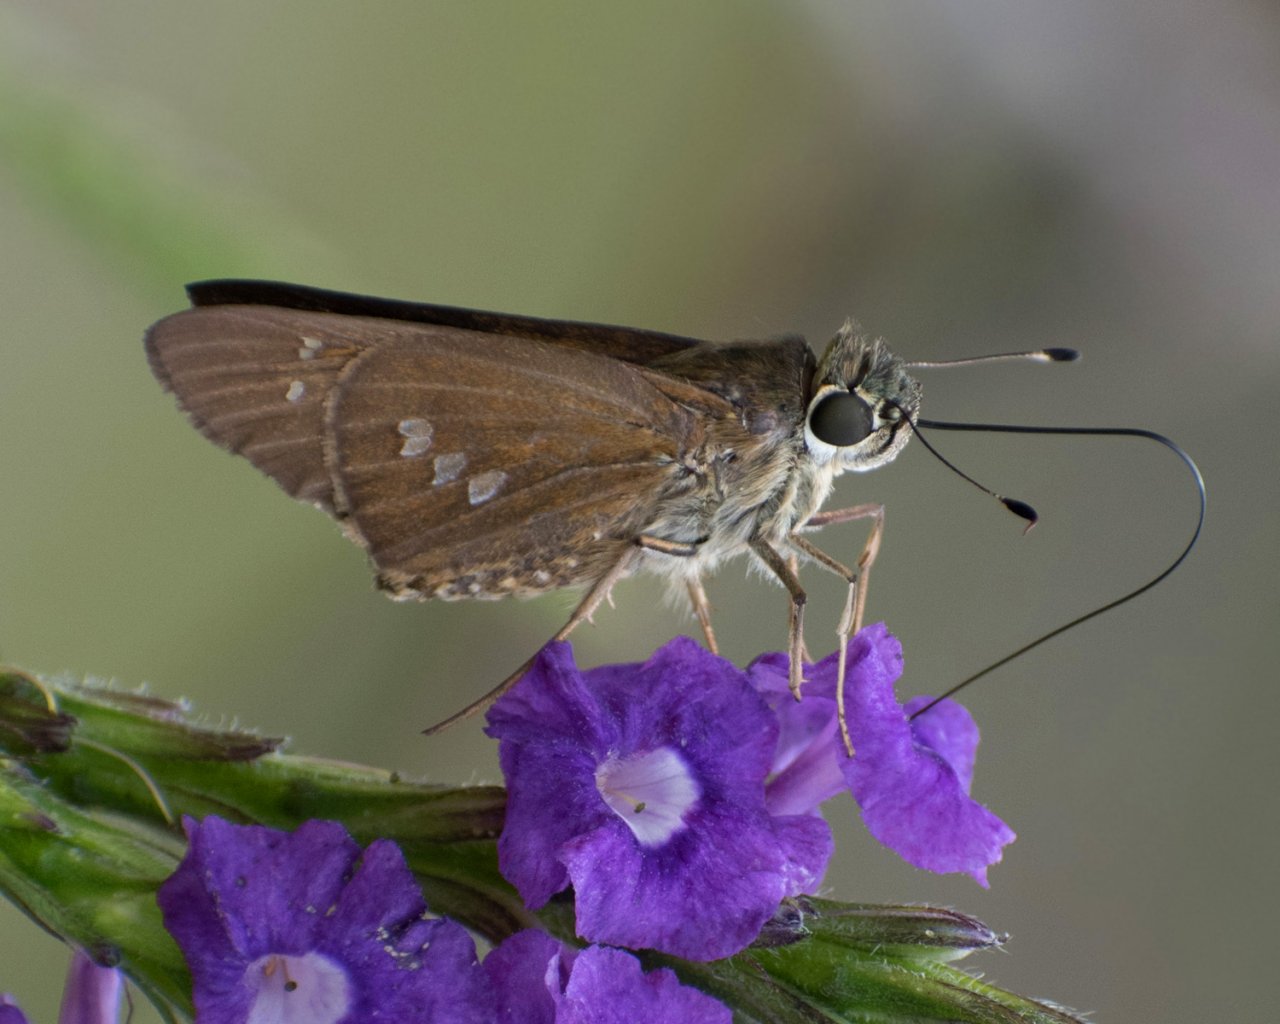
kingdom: Animalia
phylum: Arthropoda
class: Insecta
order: Lepidoptera
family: Hesperiidae
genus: Calpodes
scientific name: Calpodes ethlius
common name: Brazilian Skipper
